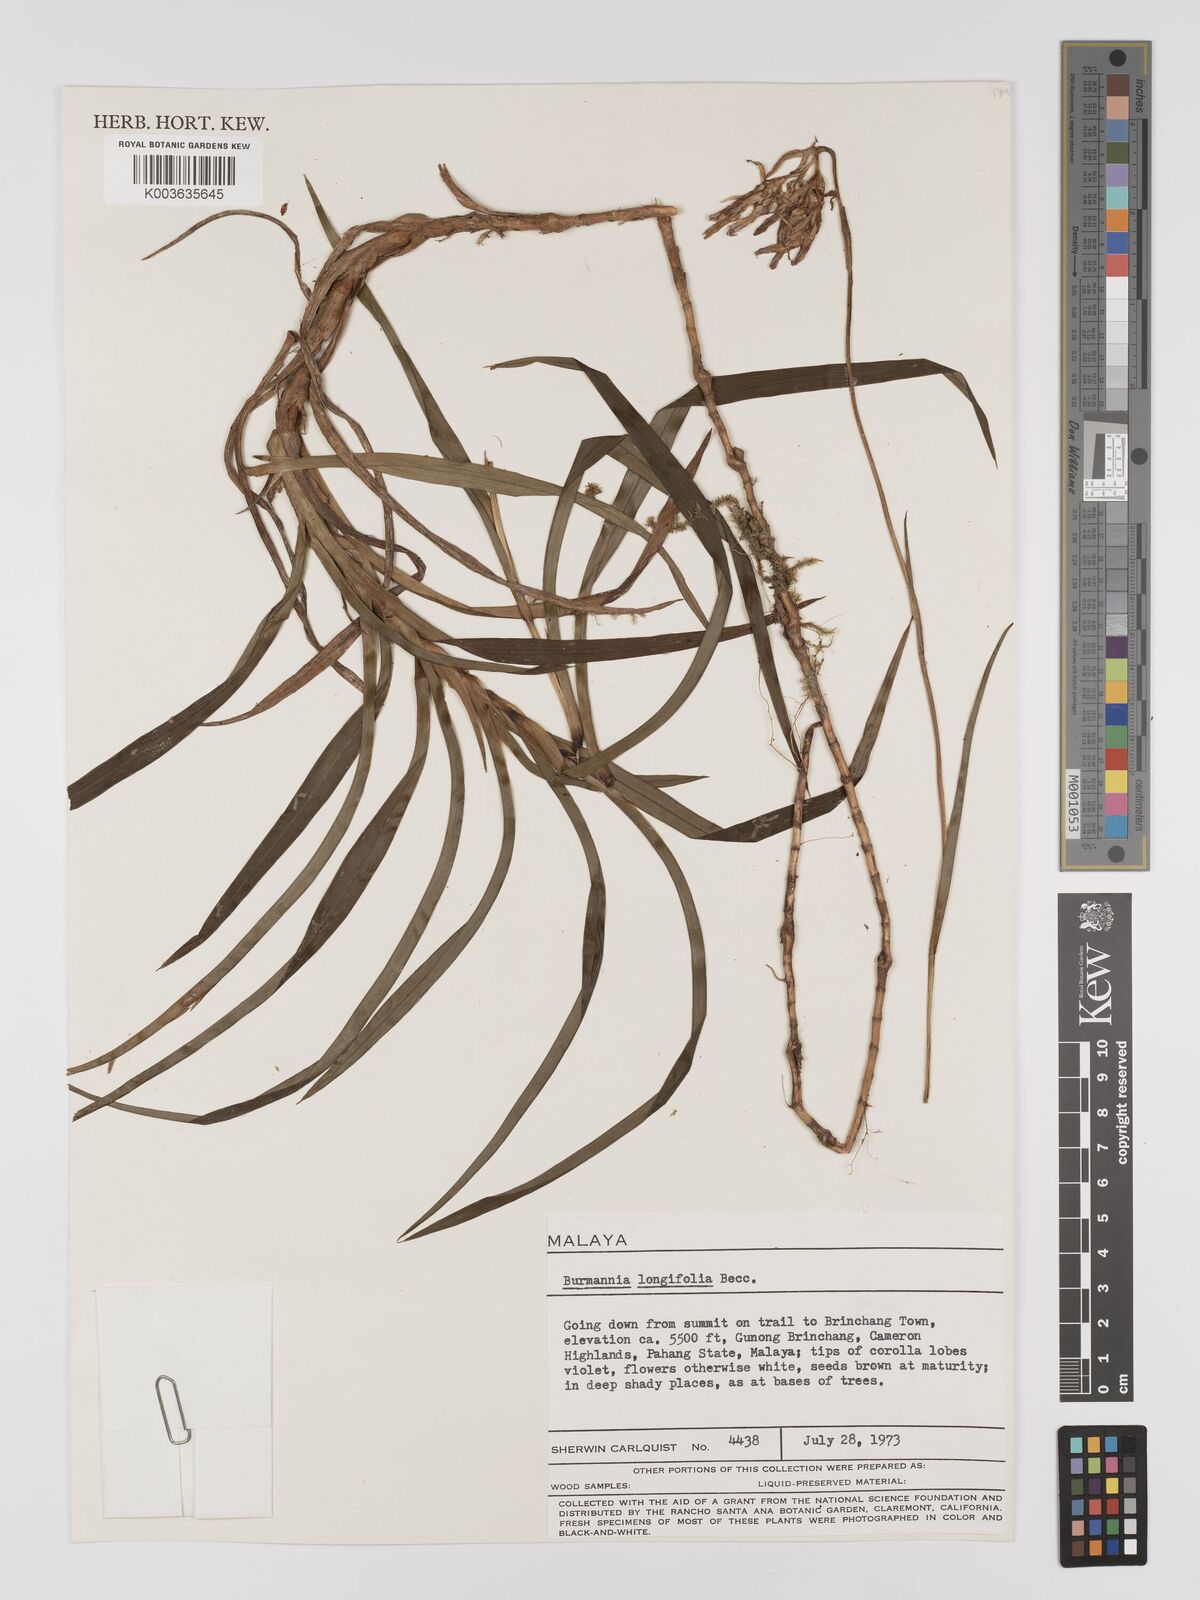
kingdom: Plantae
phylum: Tracheophyta
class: Liliopsida
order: Dioscoreales
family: Burmanniaceae
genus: Burmannia
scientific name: Burmannia longifolia
